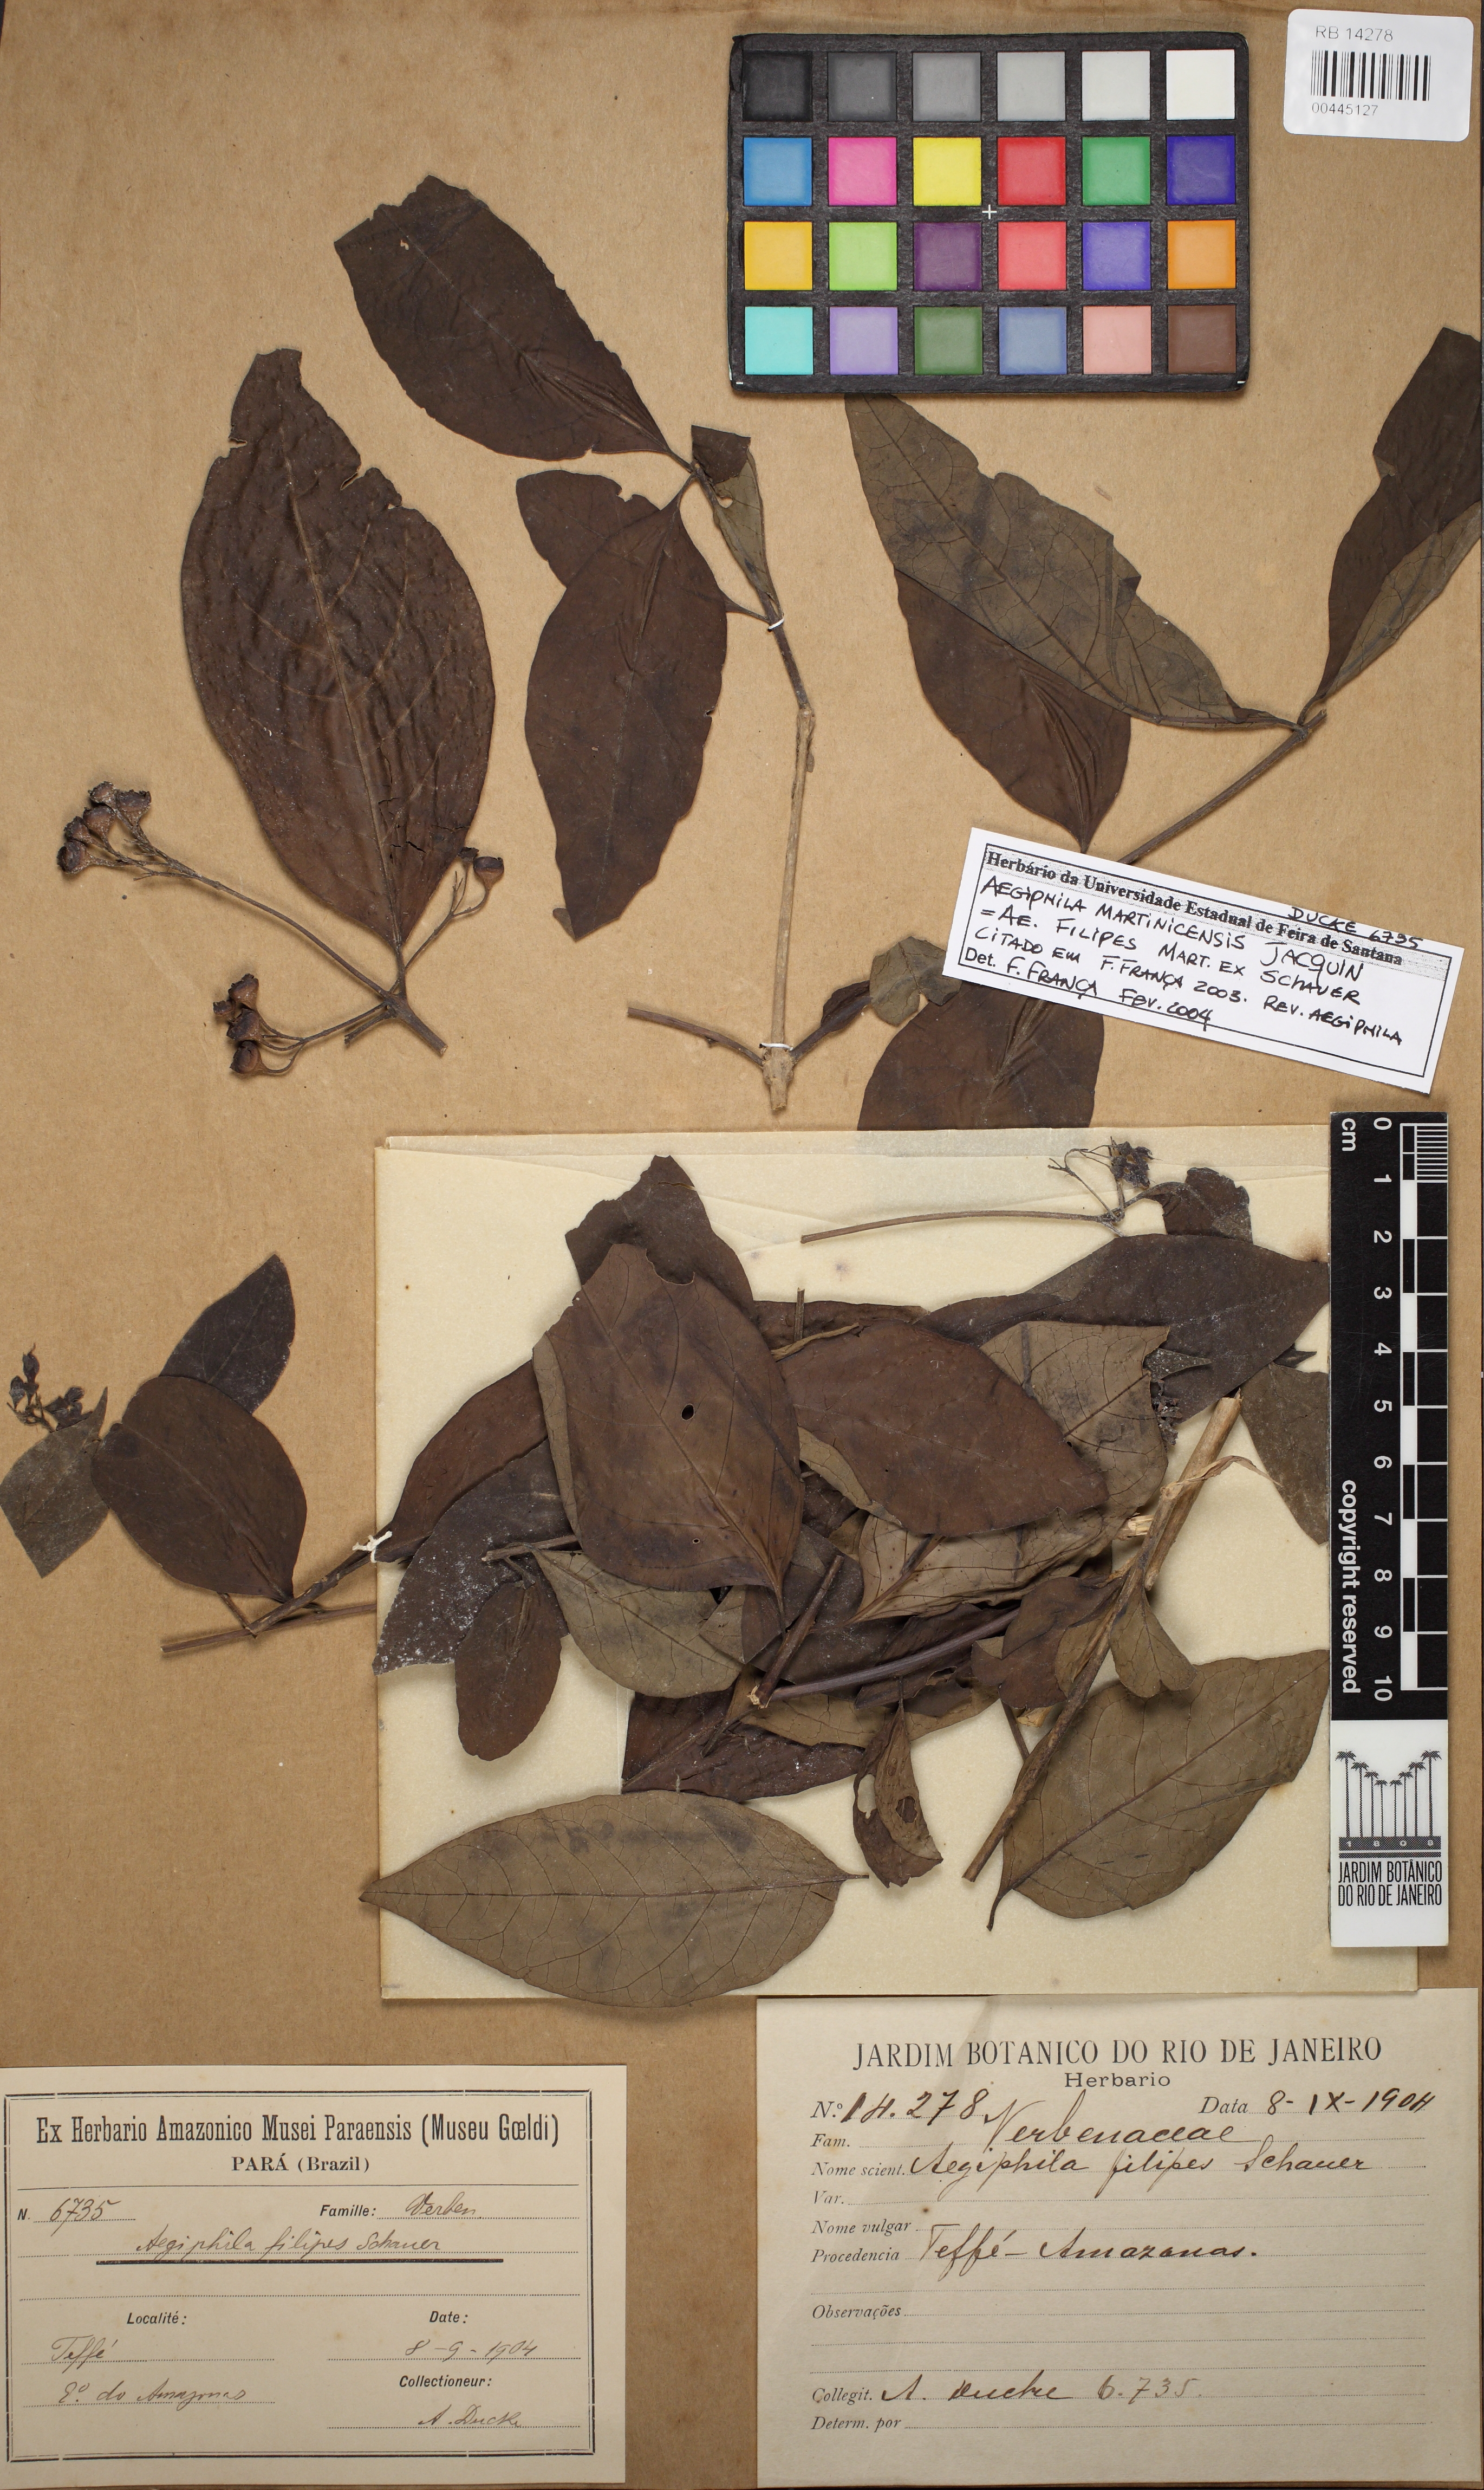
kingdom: Plantae
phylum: Tracheophyta
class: Magnoliopsida
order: Lamiales
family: Lamiaceae
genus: Aegiphila
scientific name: Aegiphila martinicensis
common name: Bastard whiteroot
